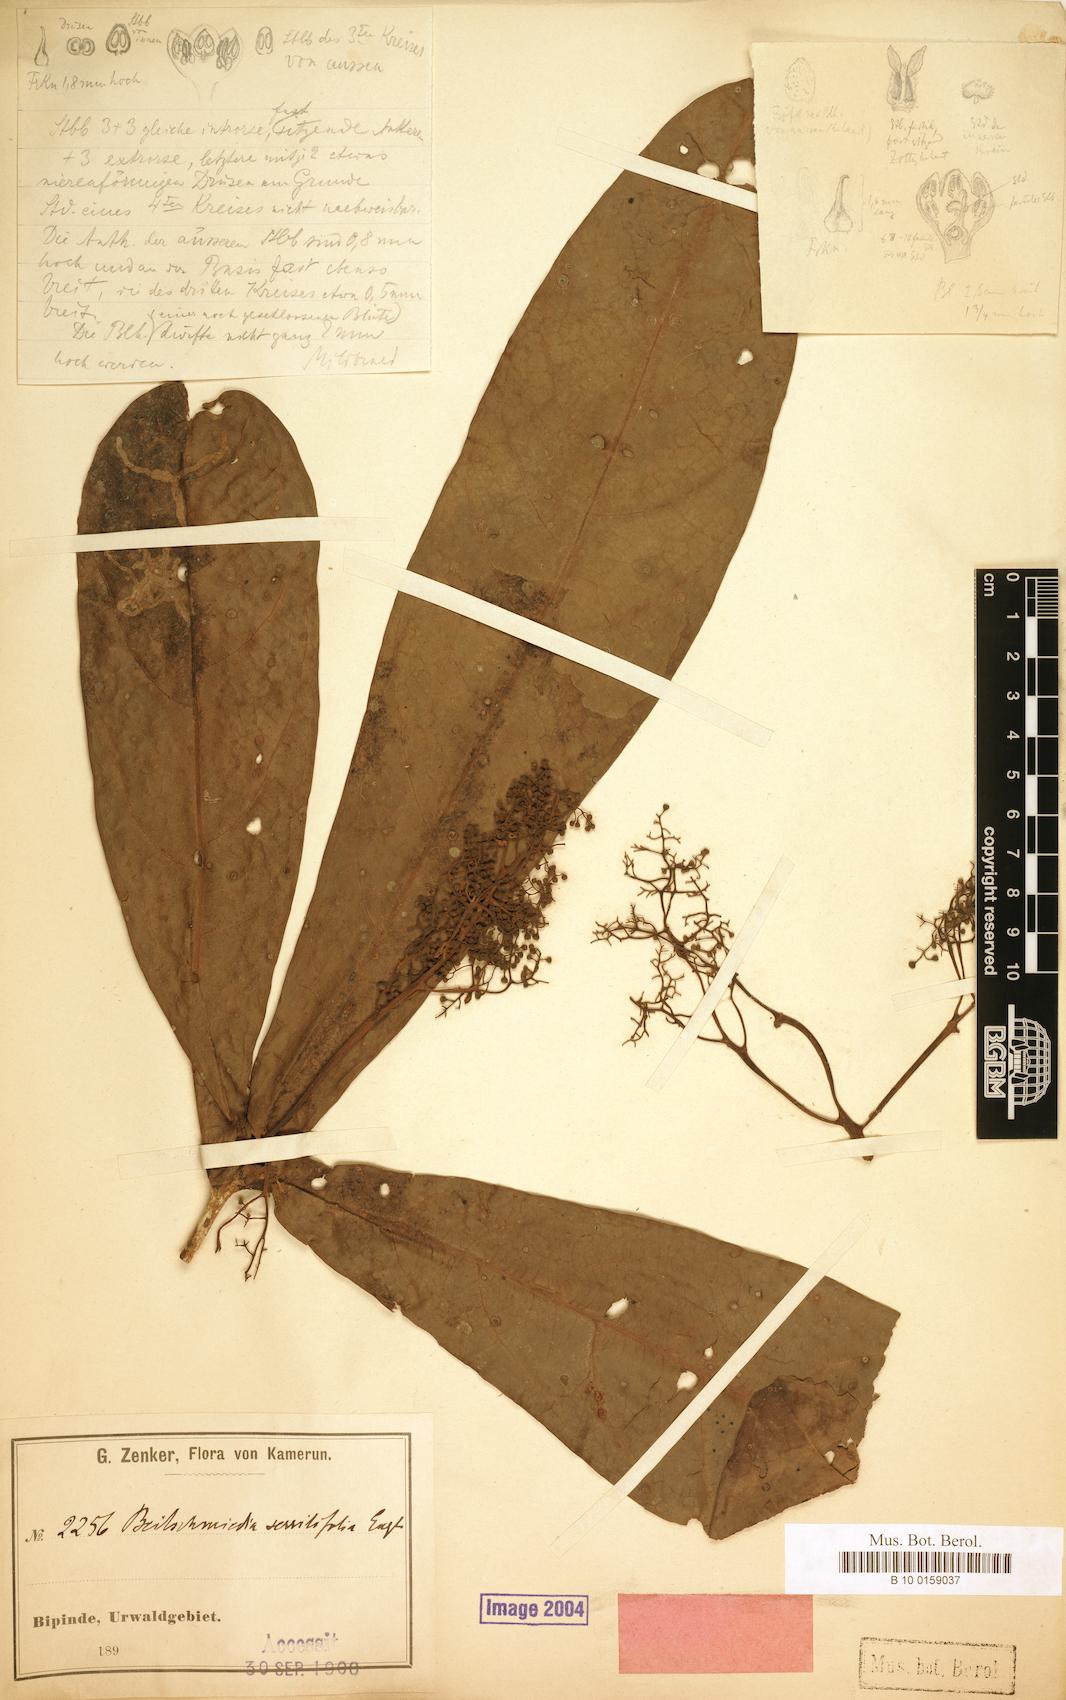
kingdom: Plantae
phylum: Tracheophyta
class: Magnoliopsida
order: Laurales
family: Lauraceae
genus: Beilschmiedia
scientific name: Beilschmiedia sessilifolia
